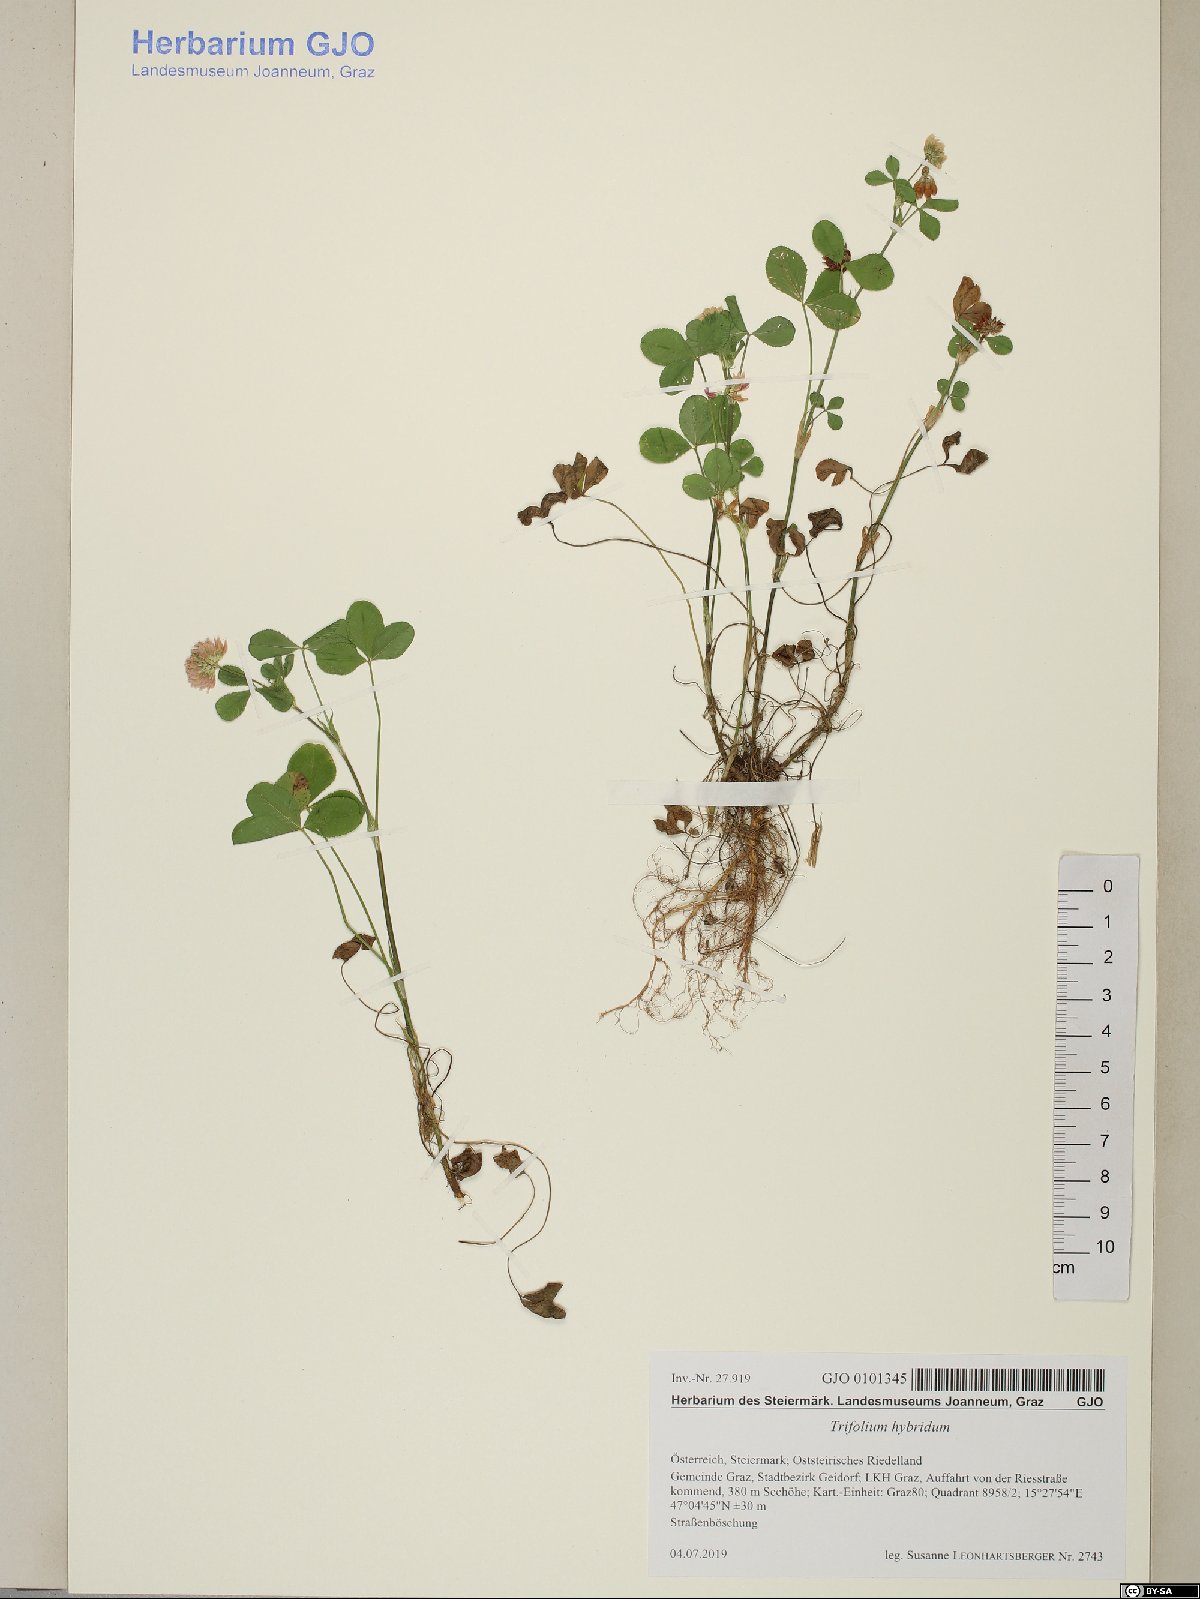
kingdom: Plantae
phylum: Tracheophyta
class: Magnoliopsida
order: Fabales
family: Fabaceae
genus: Trifolium
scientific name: Trifolium hybridum
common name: Alsike clover
